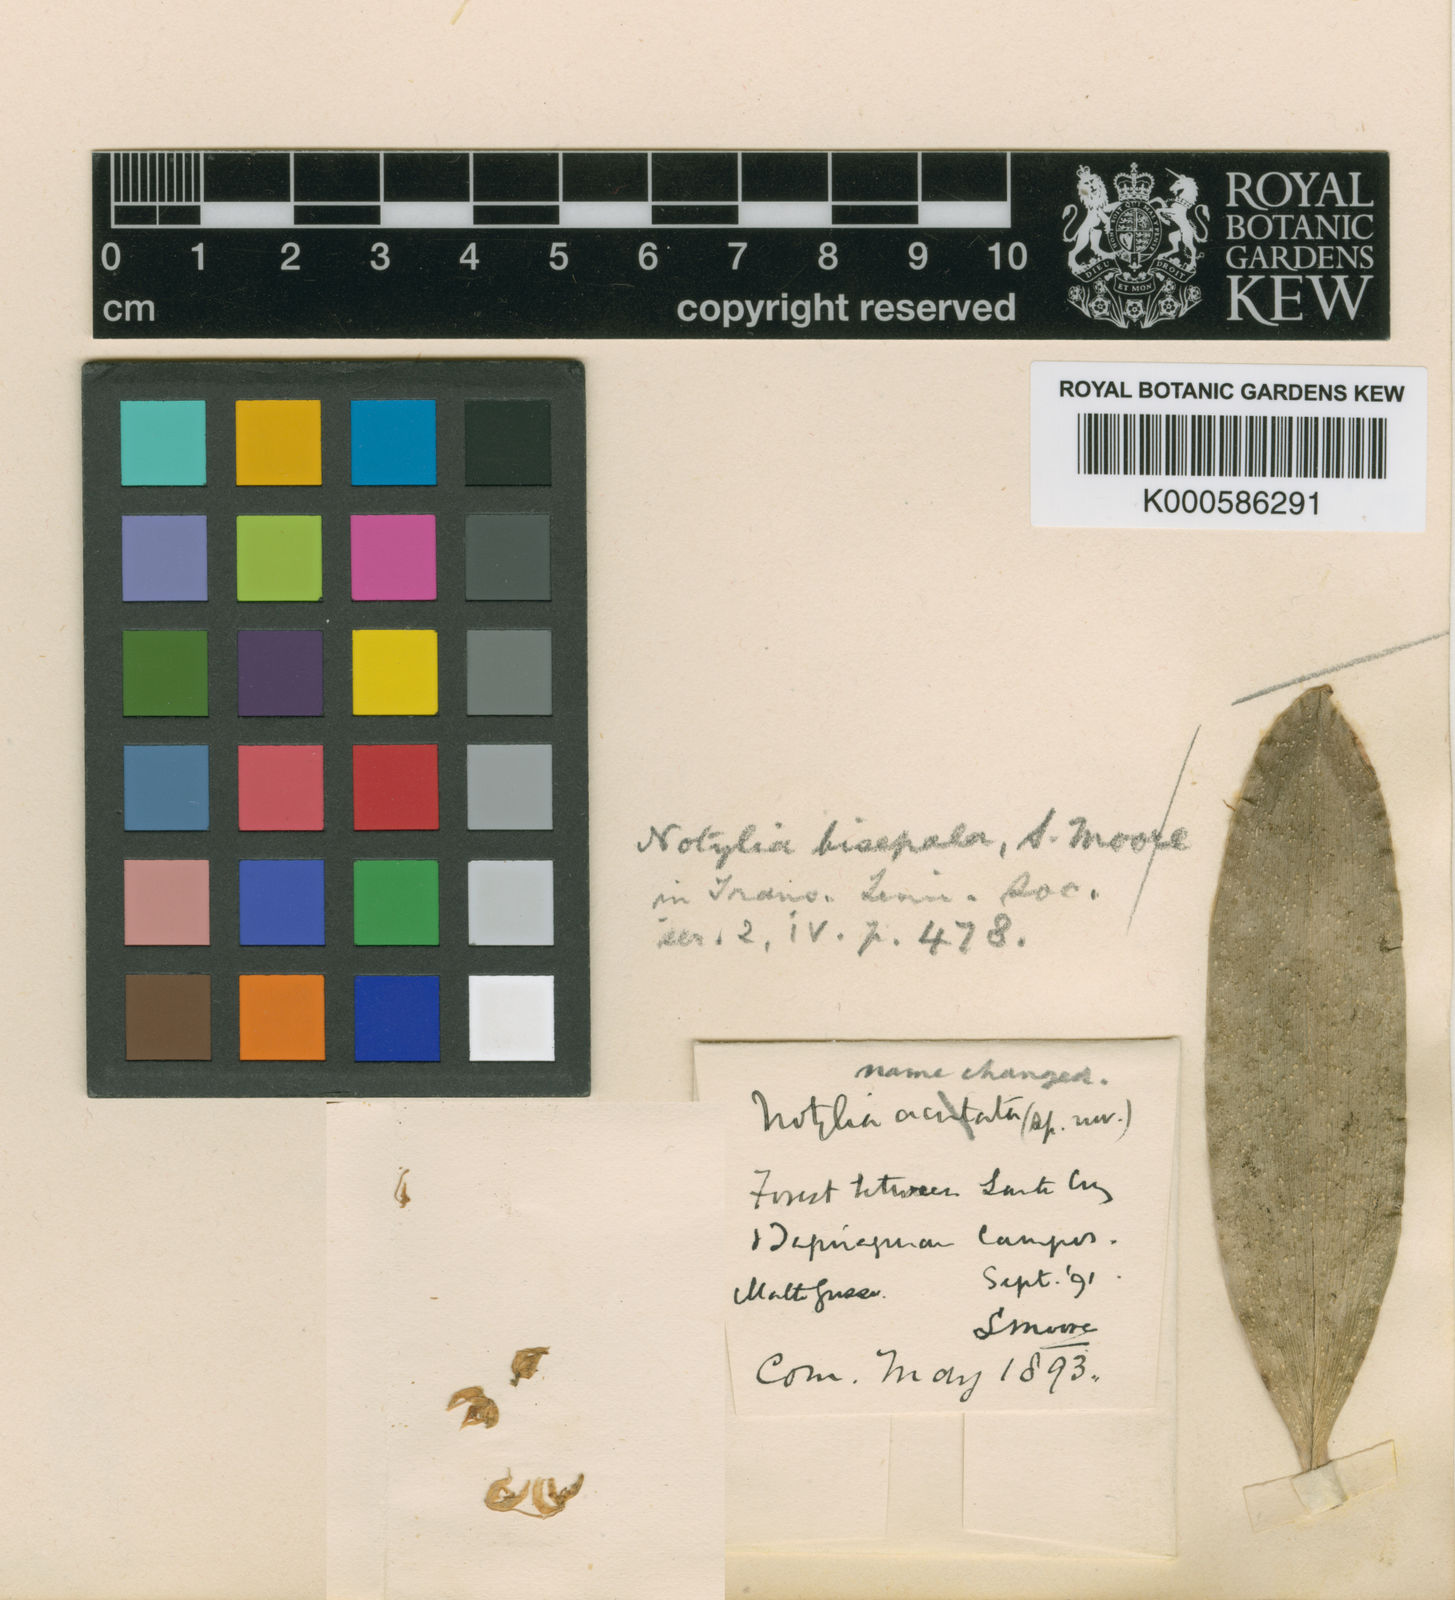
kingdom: Plantae
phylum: Tracheophyta
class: Liliopsida
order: Asparagales
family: Orchidaceae
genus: Notylia
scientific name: Notylia bisepala
